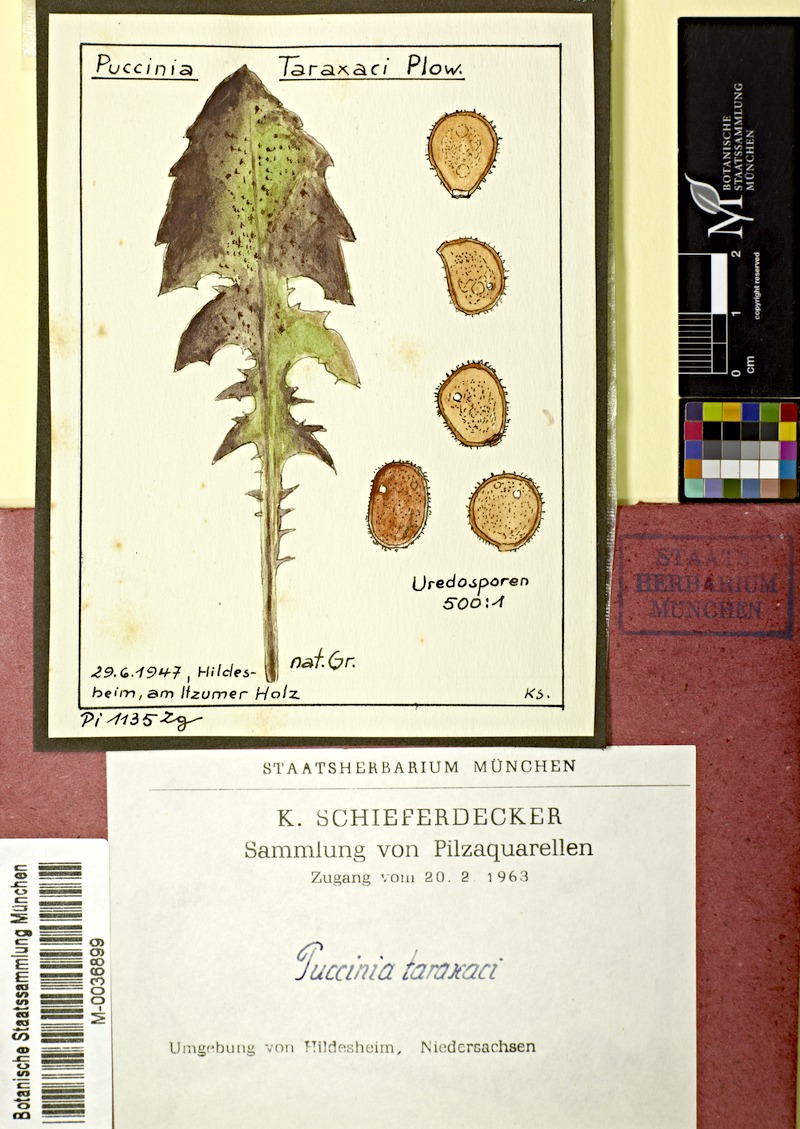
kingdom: Fungi
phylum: Basidiomycota
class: Pucciniomycetes
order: Pucciniales
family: Pucciniaceae
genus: Puccinia
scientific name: Puccinia hieracii
